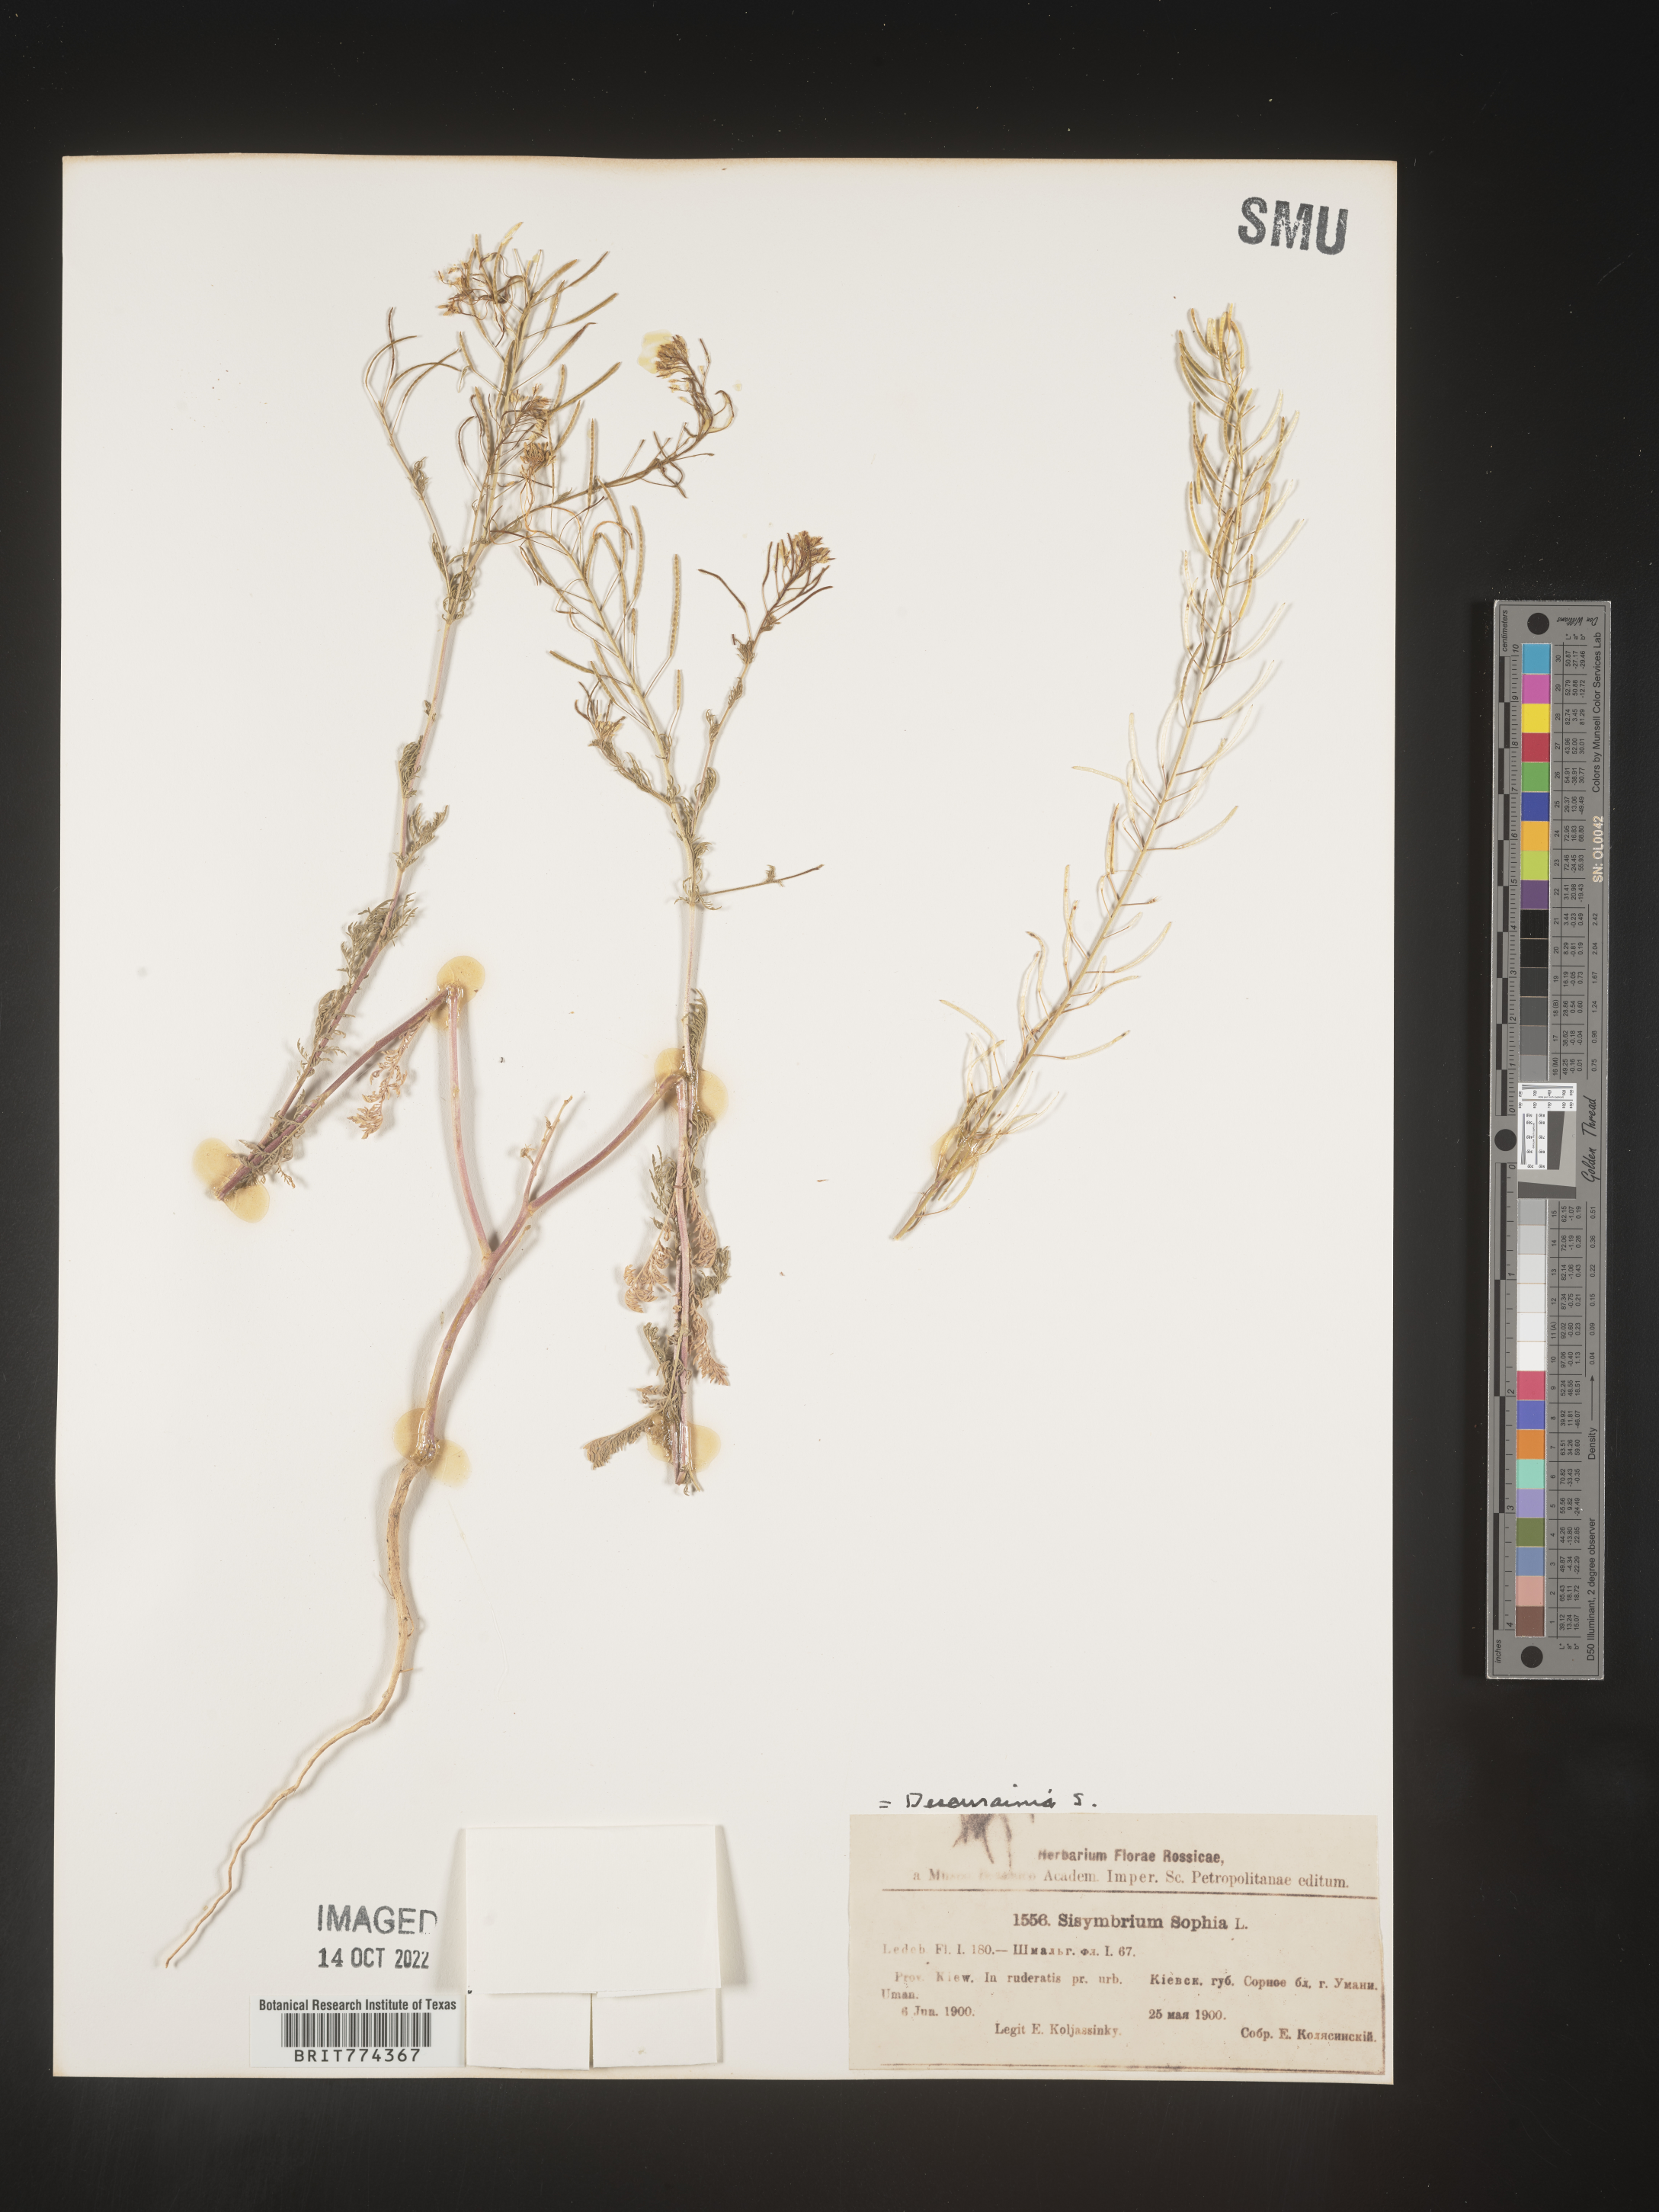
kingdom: Plantae
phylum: Tracheophyta
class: Magnoliopsida
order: Brassicales
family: Brassicaceae
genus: Descurainia
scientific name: Descurainia
